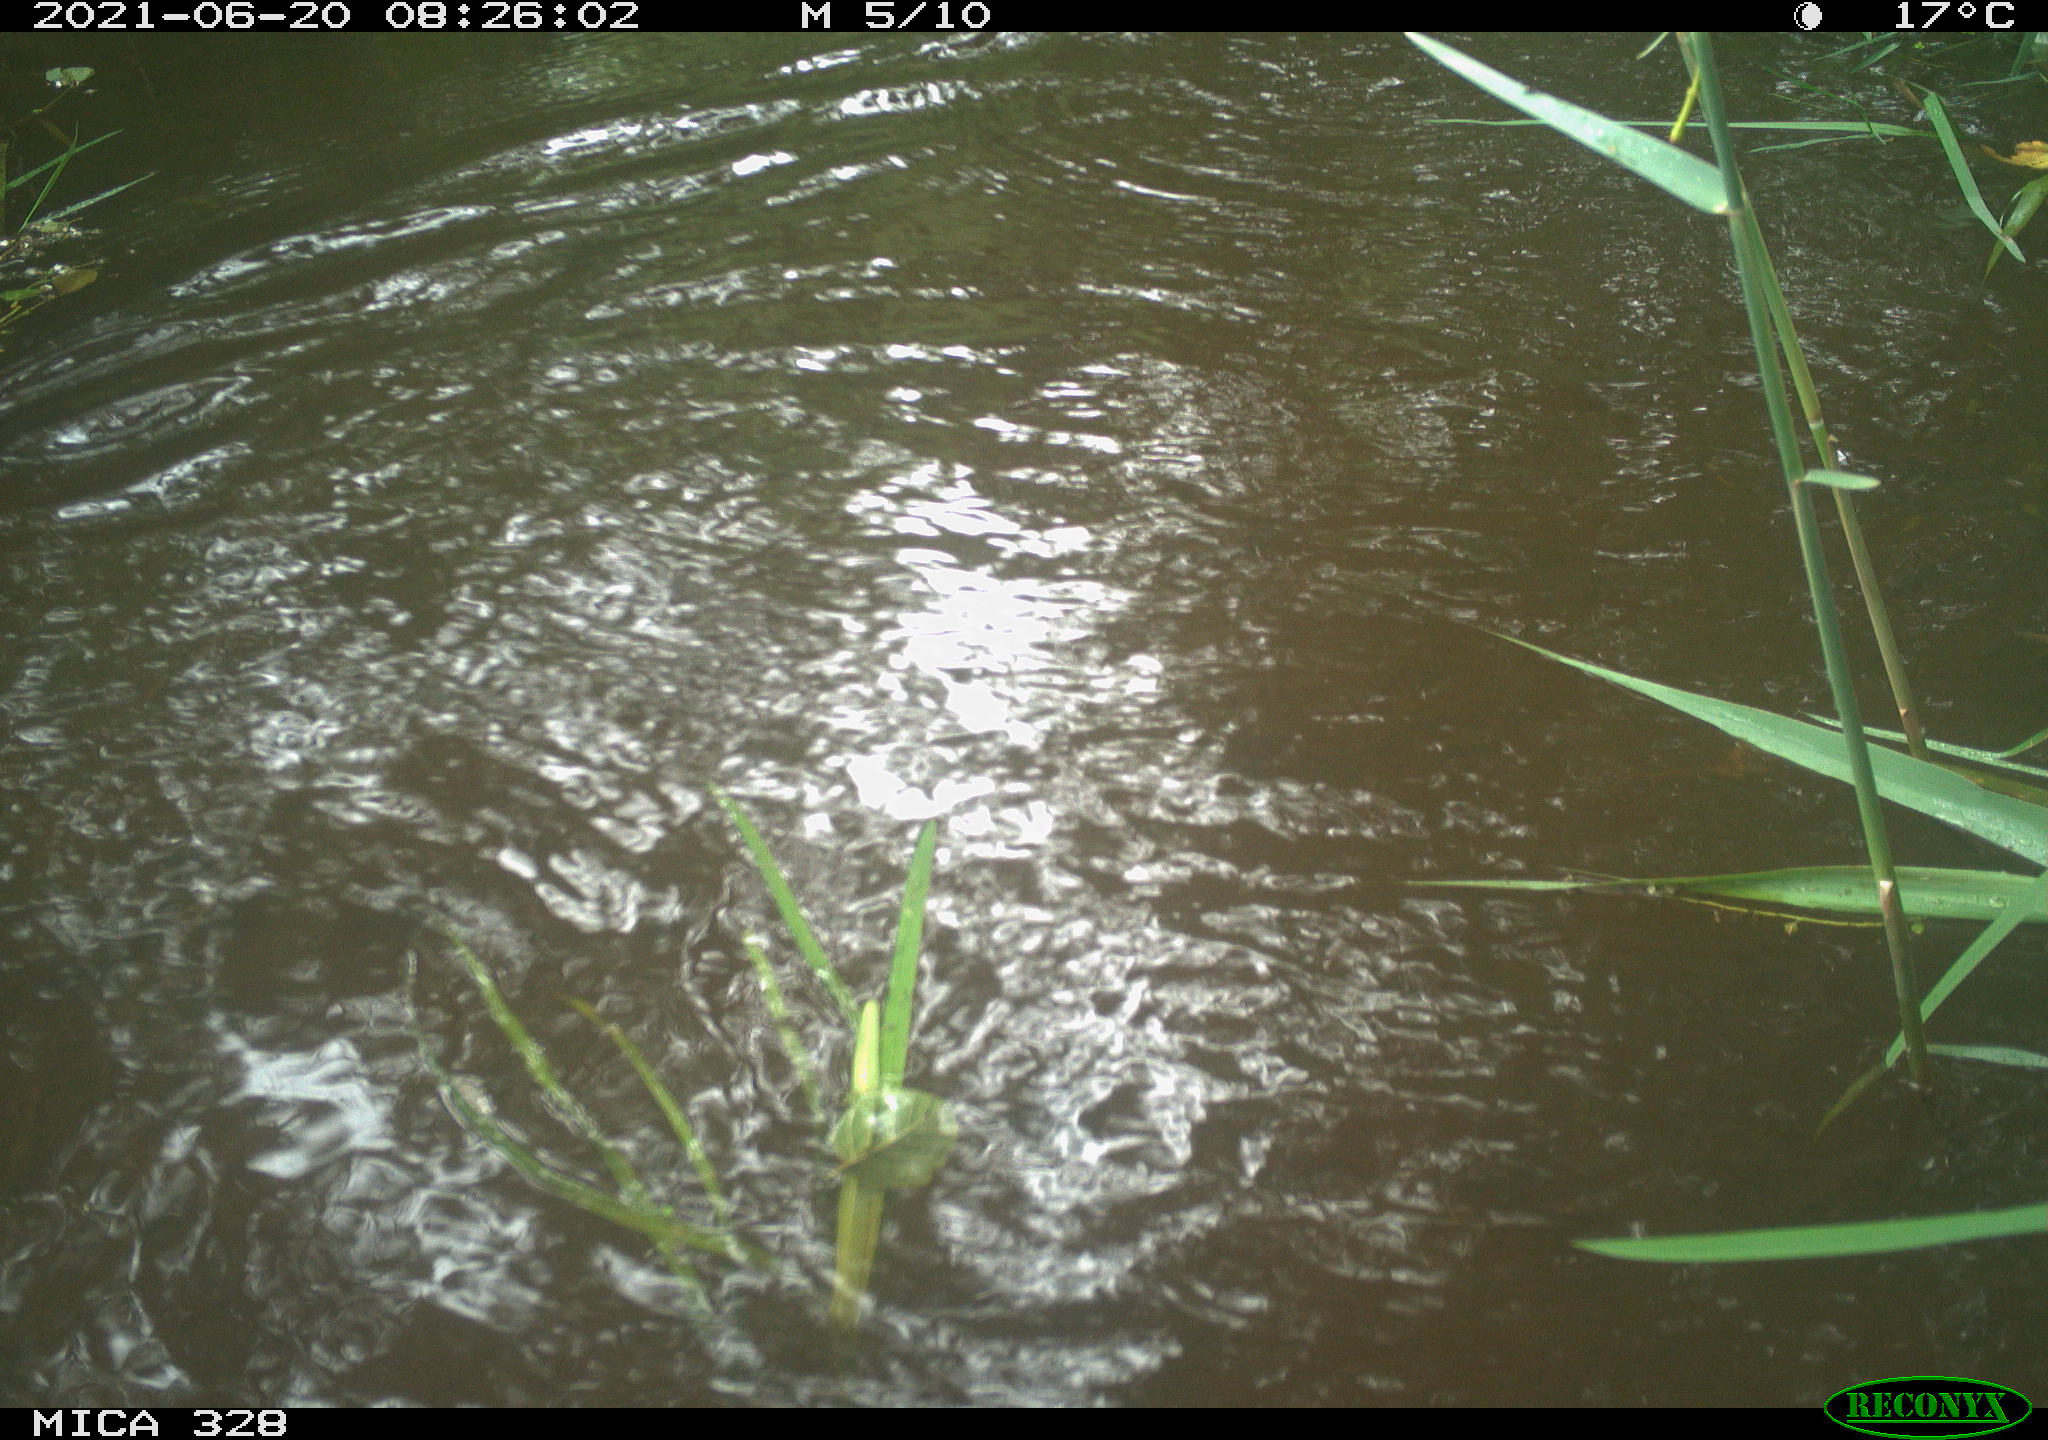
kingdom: Animalia
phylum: Chordata
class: Mammalia
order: Rodentia
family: Cricetidae
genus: Ondatra
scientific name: Ondatra zibethicus
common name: Muskrat
